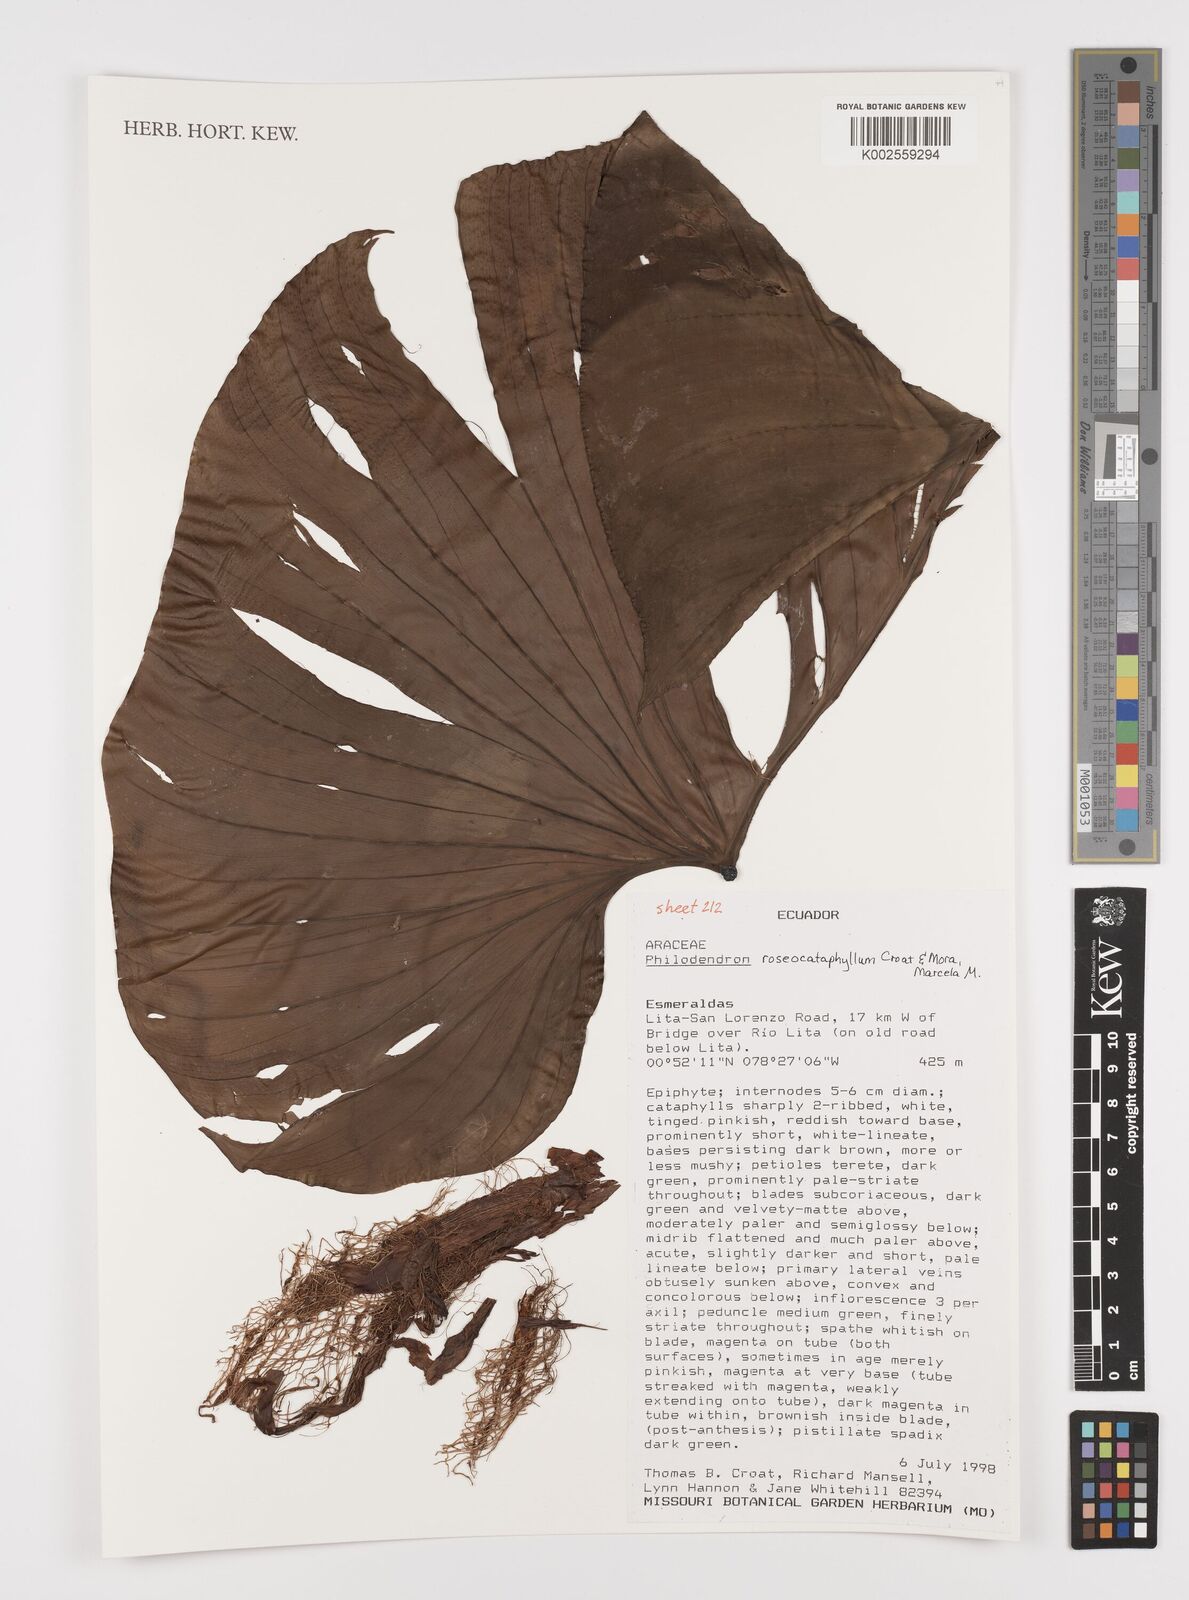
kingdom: Plantae
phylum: Tracheophyta
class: Liliopsida
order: Alismatales
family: Araceae
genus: Philodendron
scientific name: Philodendron roseocataphyllum
